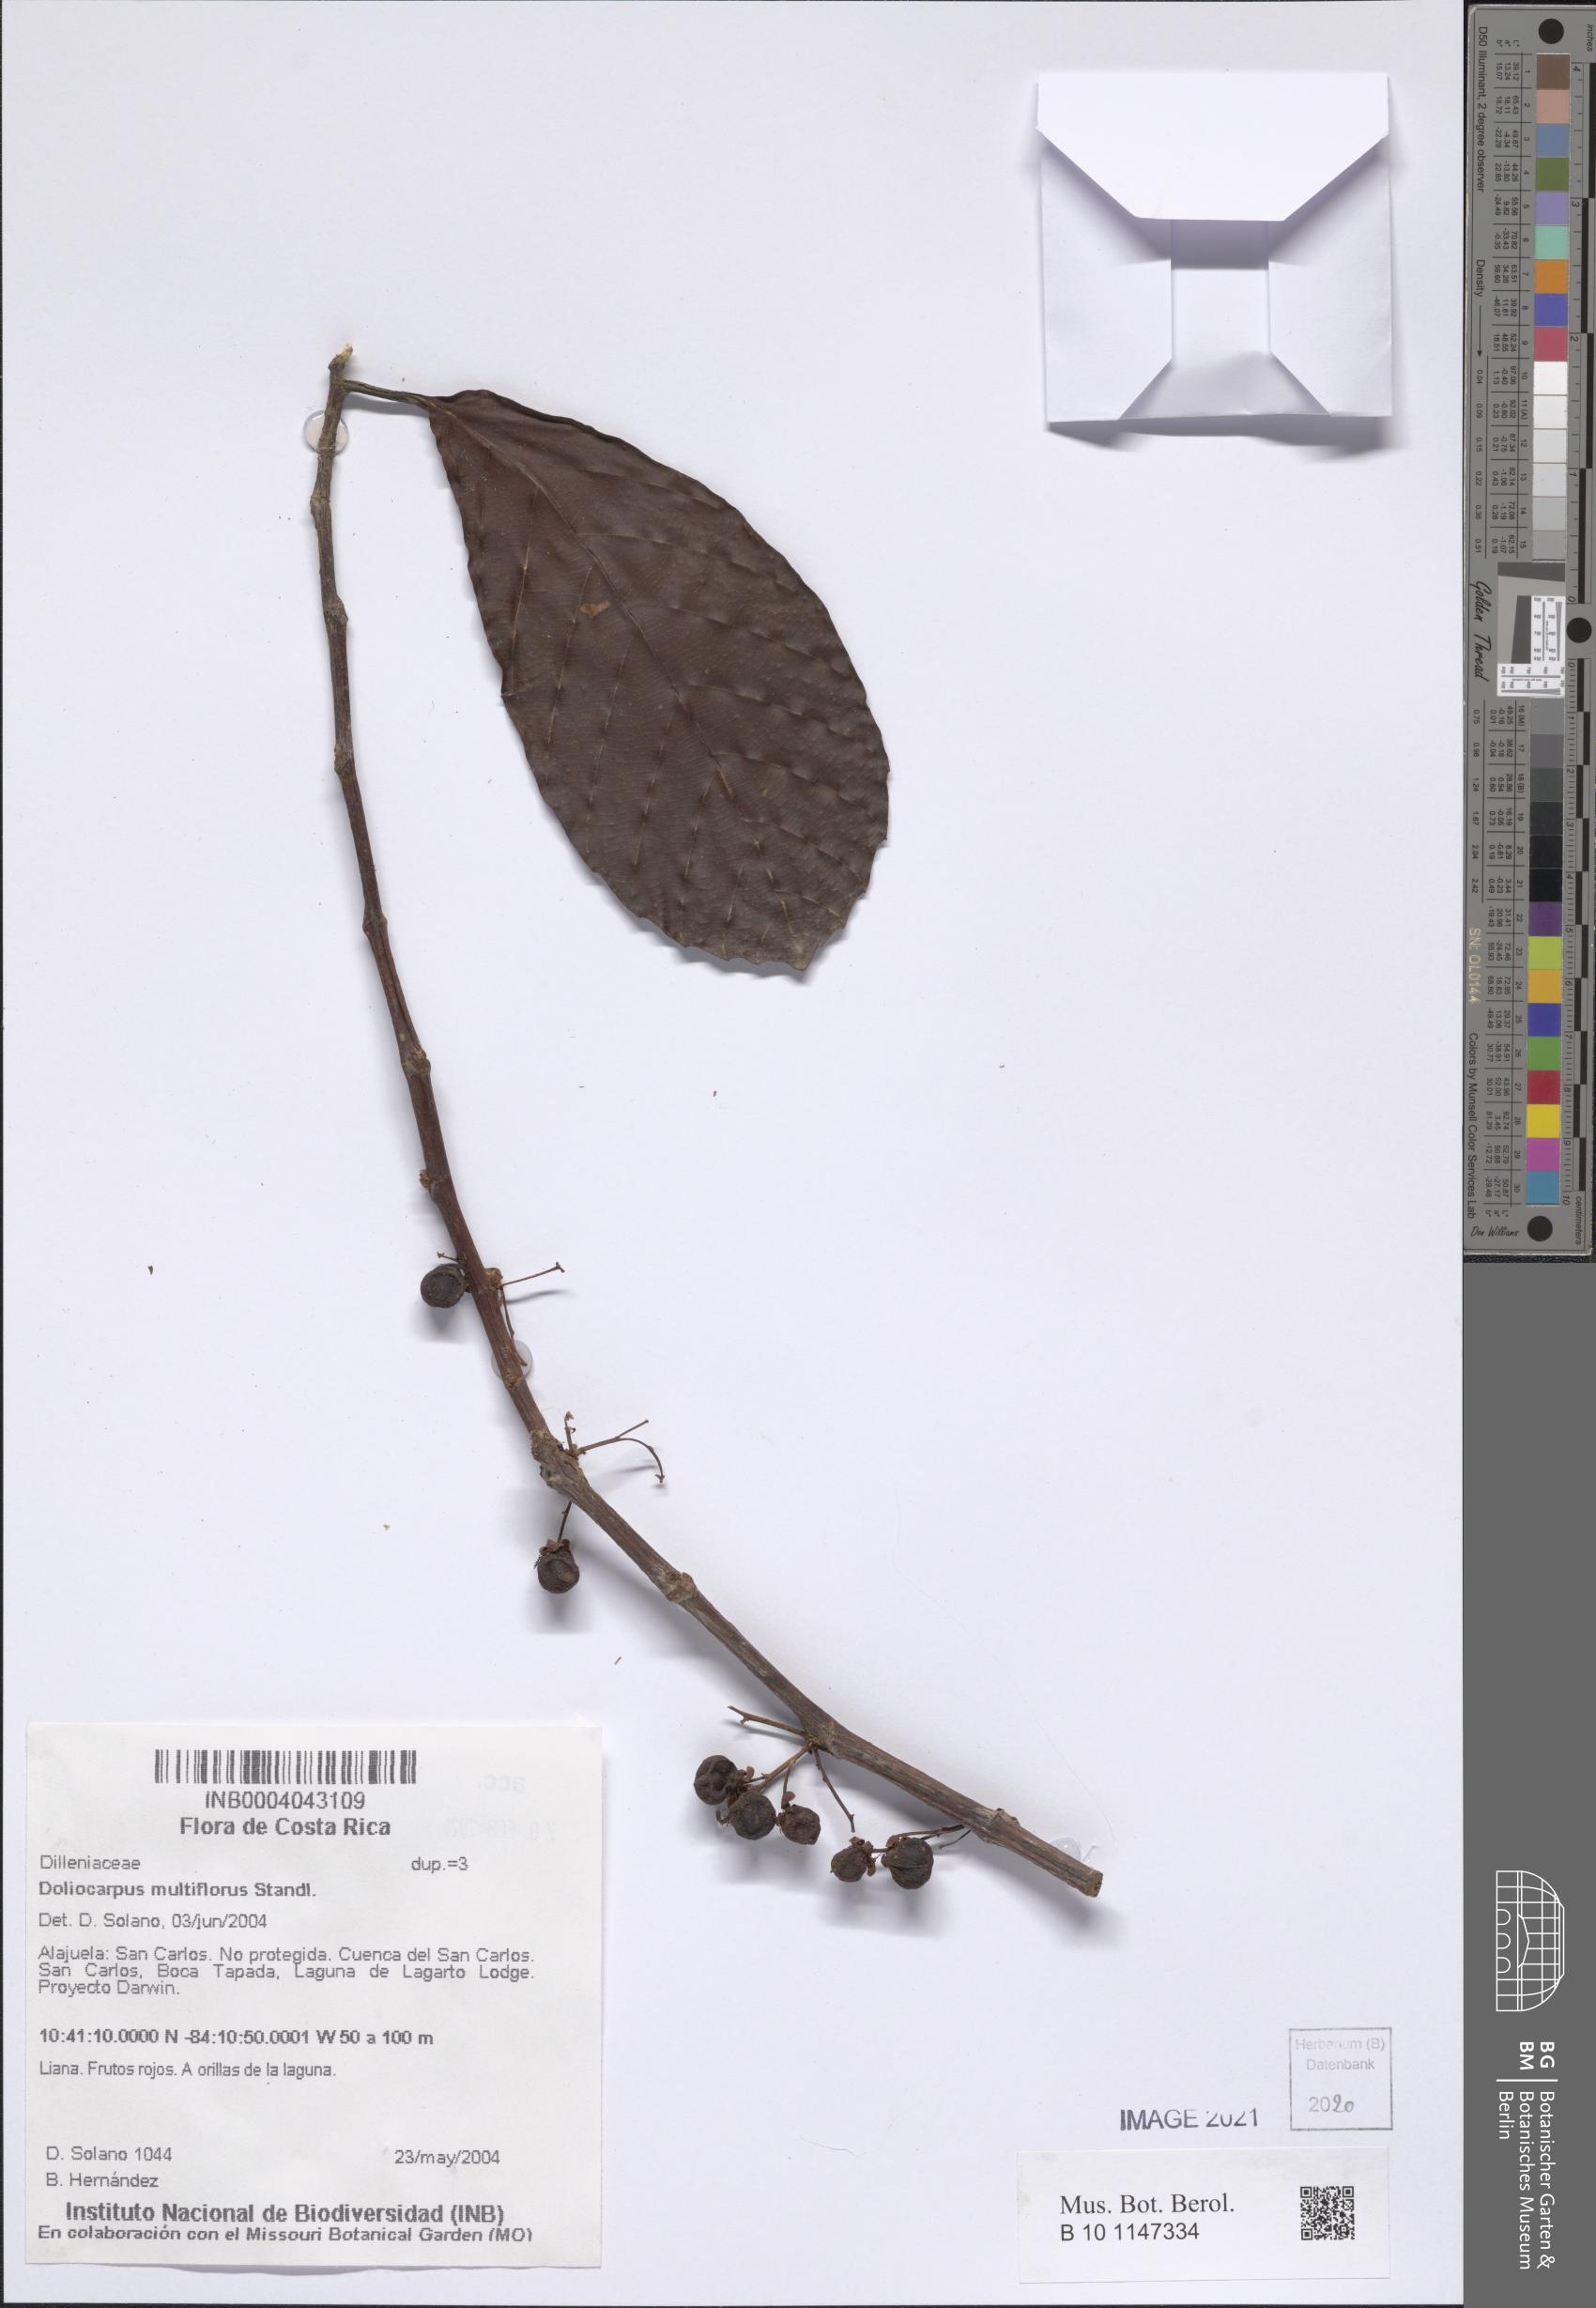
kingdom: Plantae
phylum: Tracheophyta
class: Magnoliopsida
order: Dilleniales
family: Dilleniaceae
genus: Doliocarpus
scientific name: Doliocarpus multiflorus
